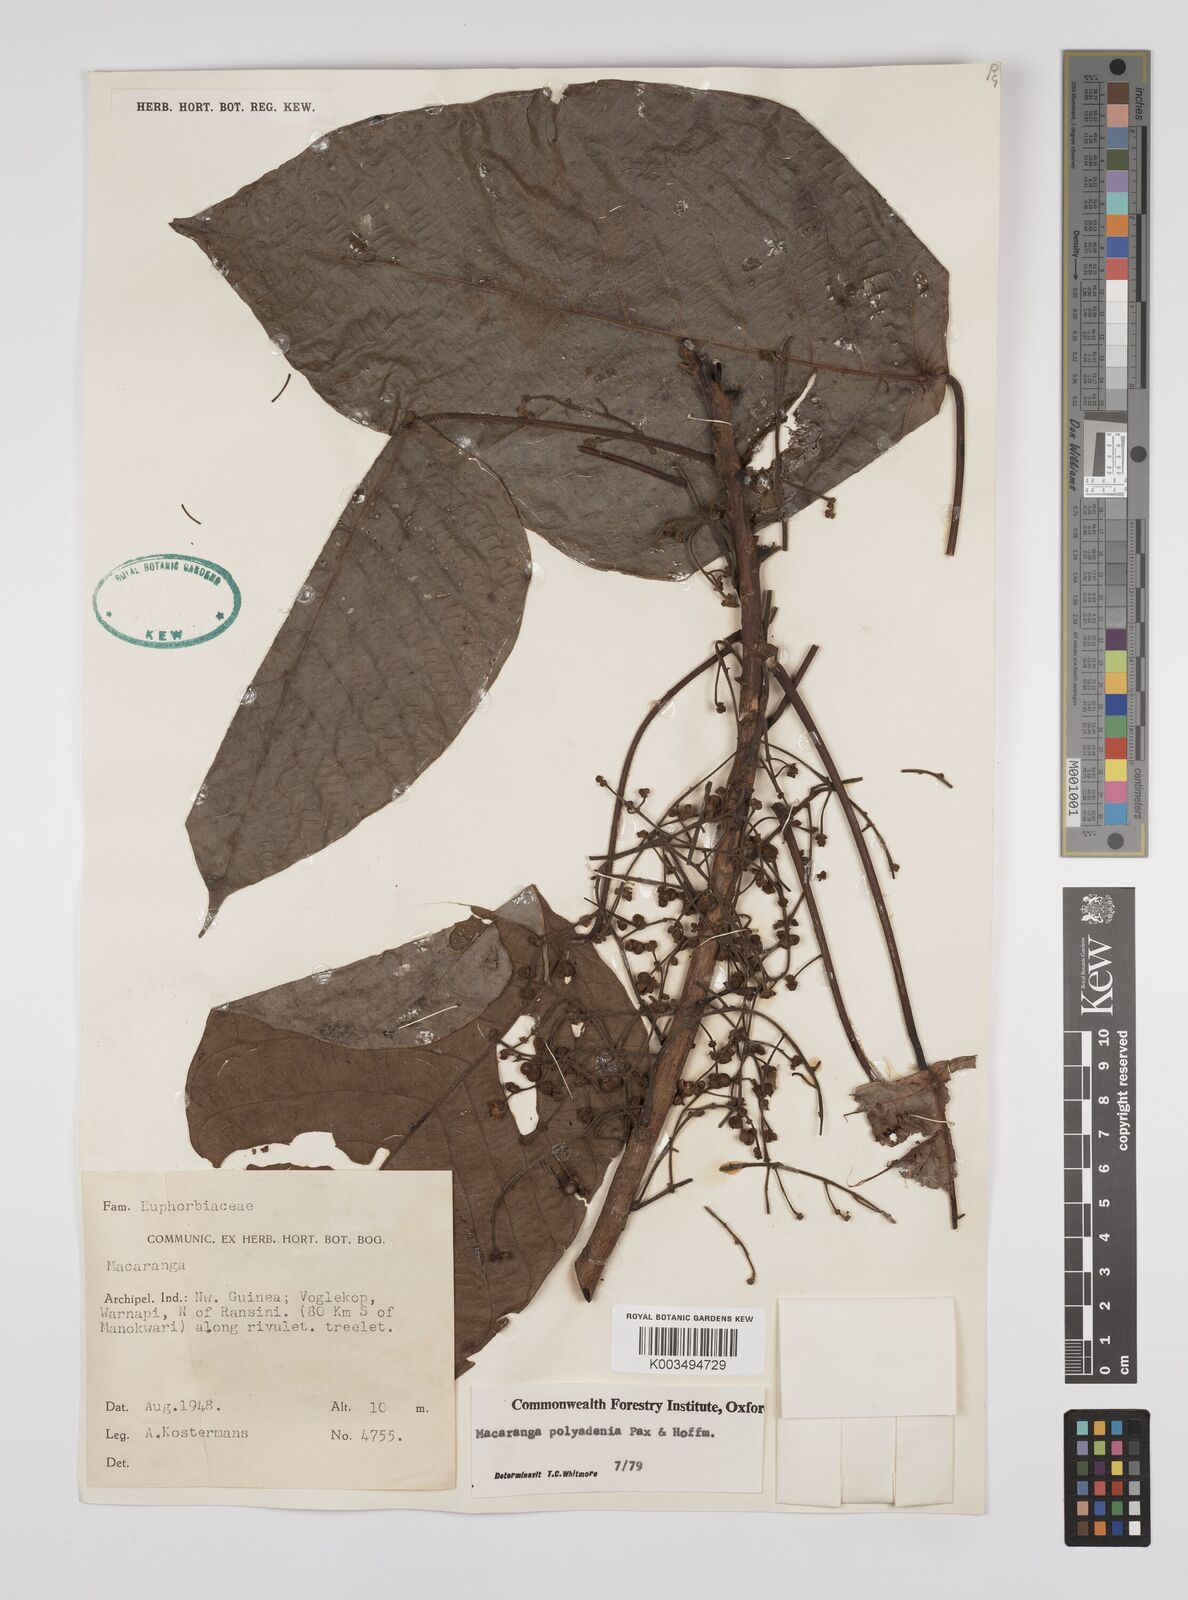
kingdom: Plantae
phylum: Tracheophyta
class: Magnoliopsida
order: Malpighiales
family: Euphorbiaceae
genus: Macaranga
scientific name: Macaranga polyadenia
